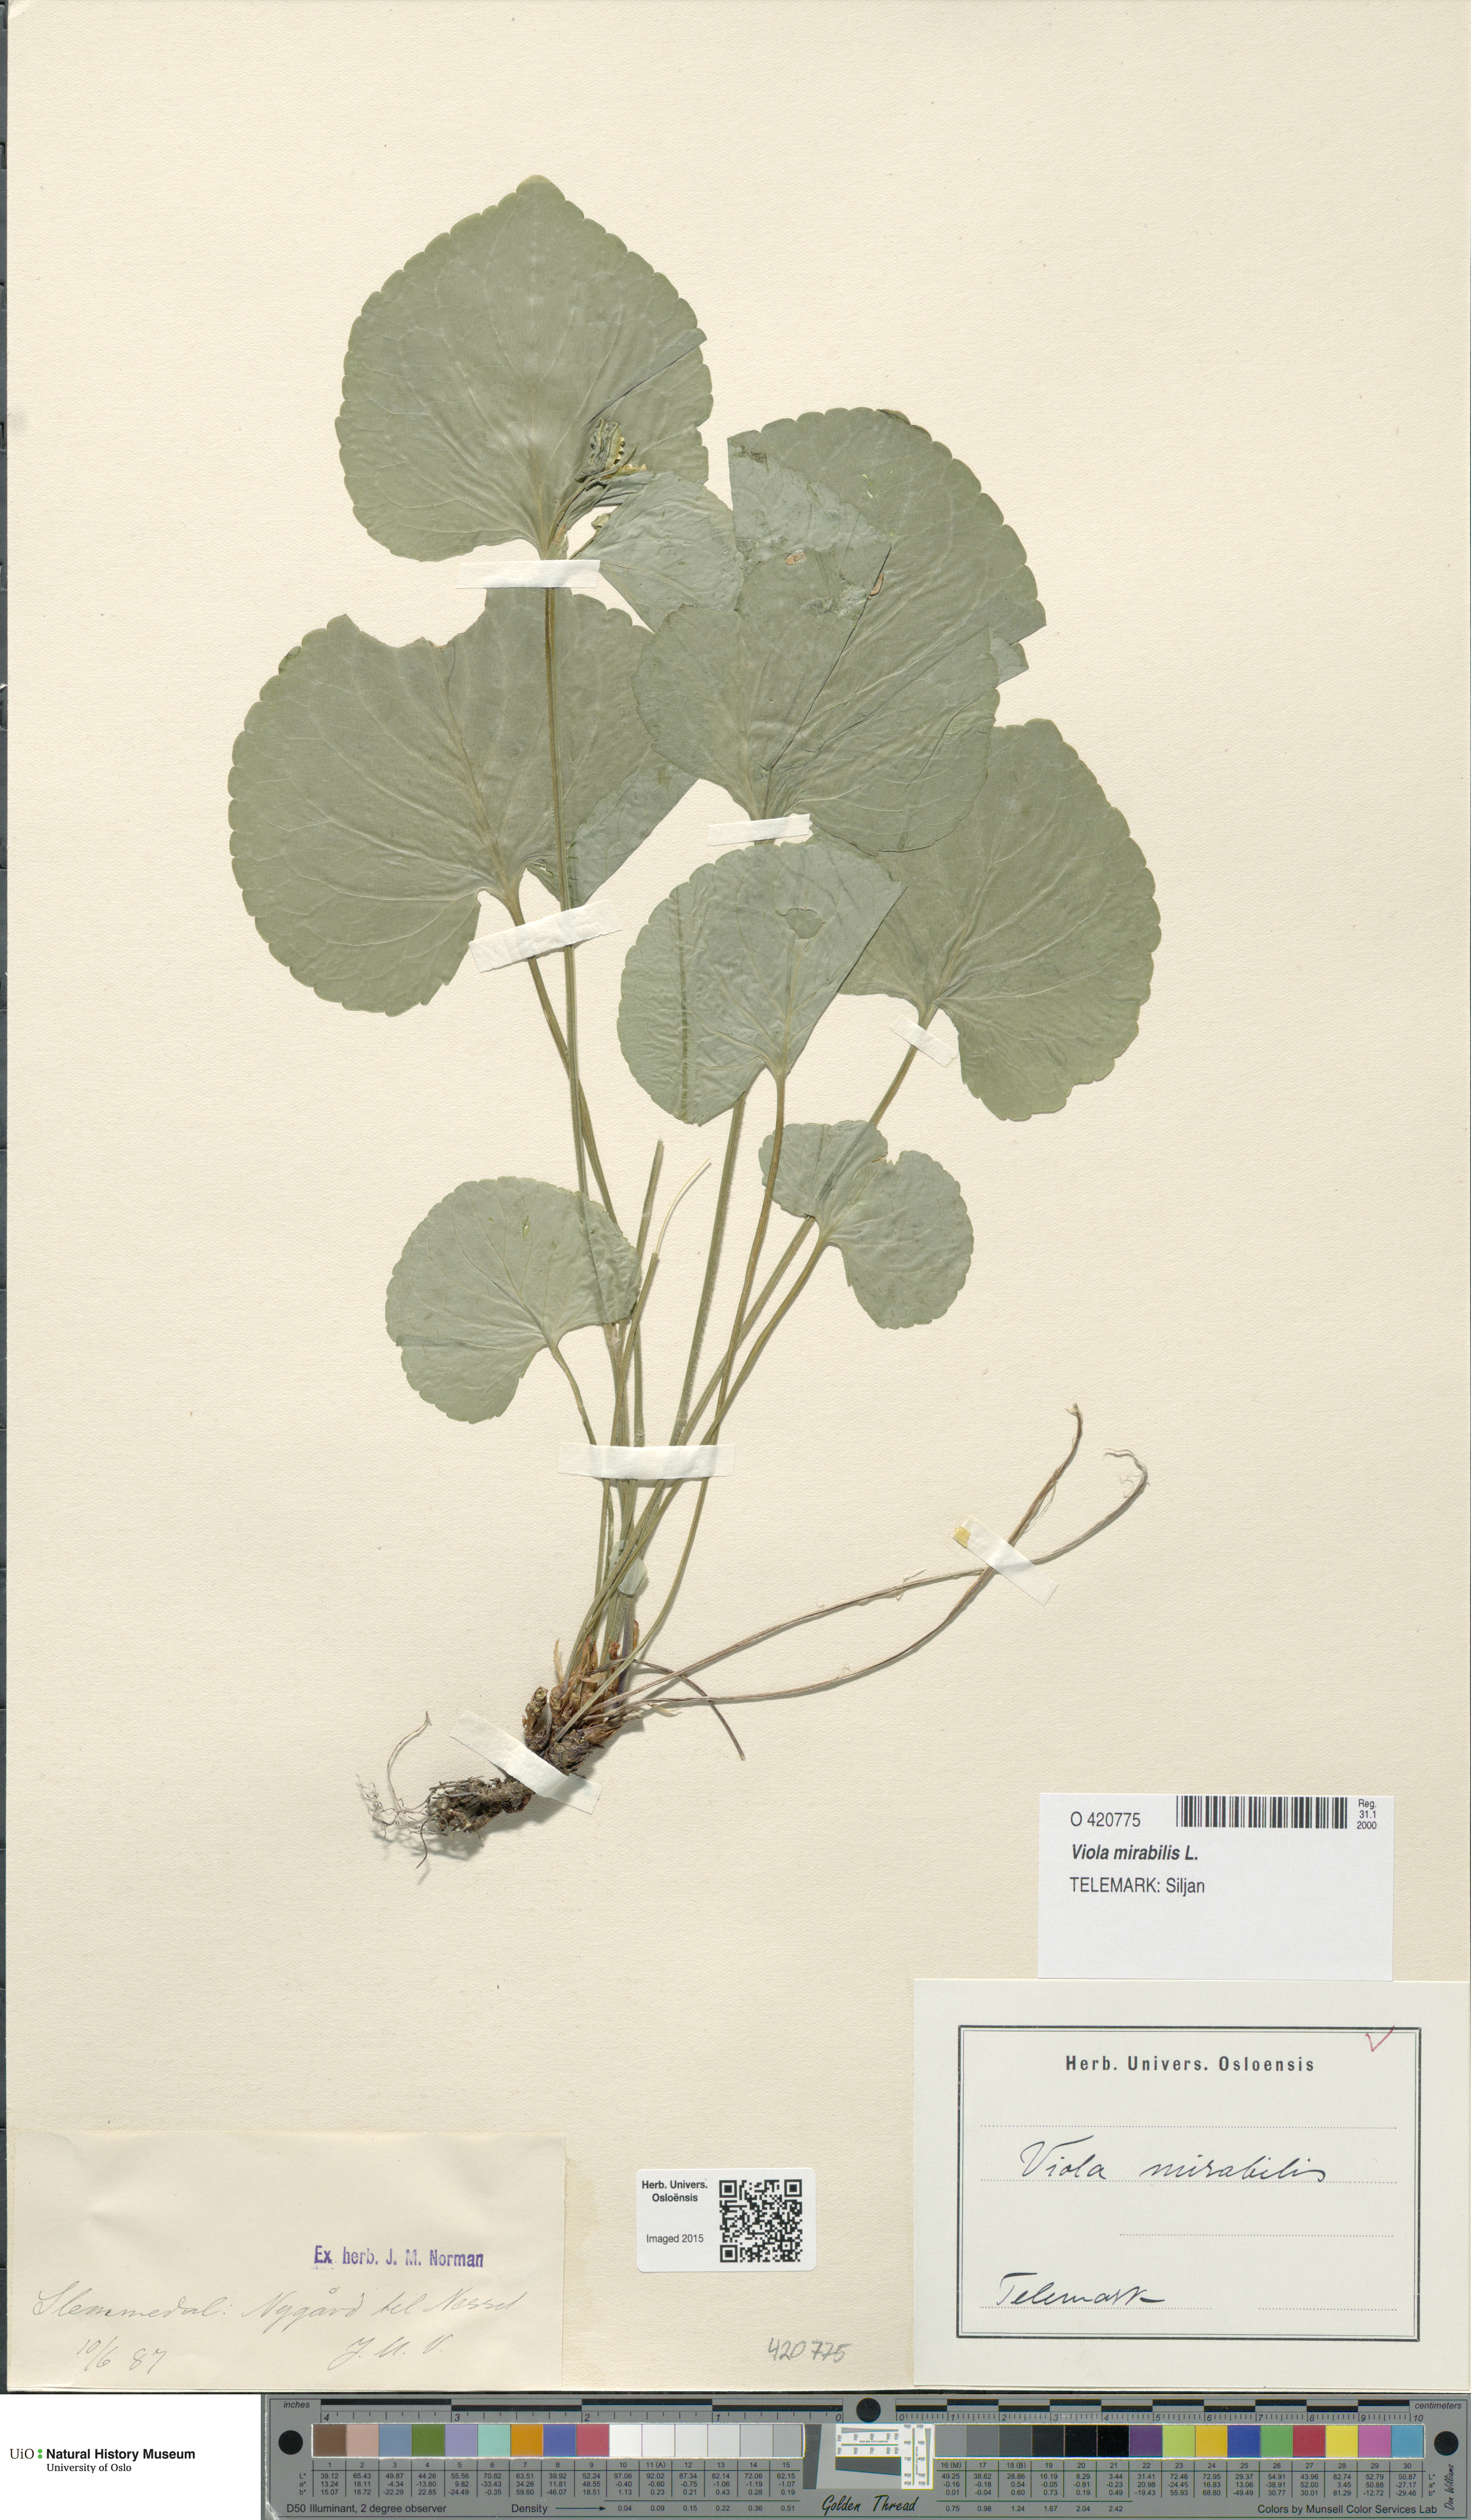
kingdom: Plantae
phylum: Tracheophyta
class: Magnoliopsida
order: Malpighiales
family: Violaceae
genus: Viola
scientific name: Viola mirabilis
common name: Wonder violet
